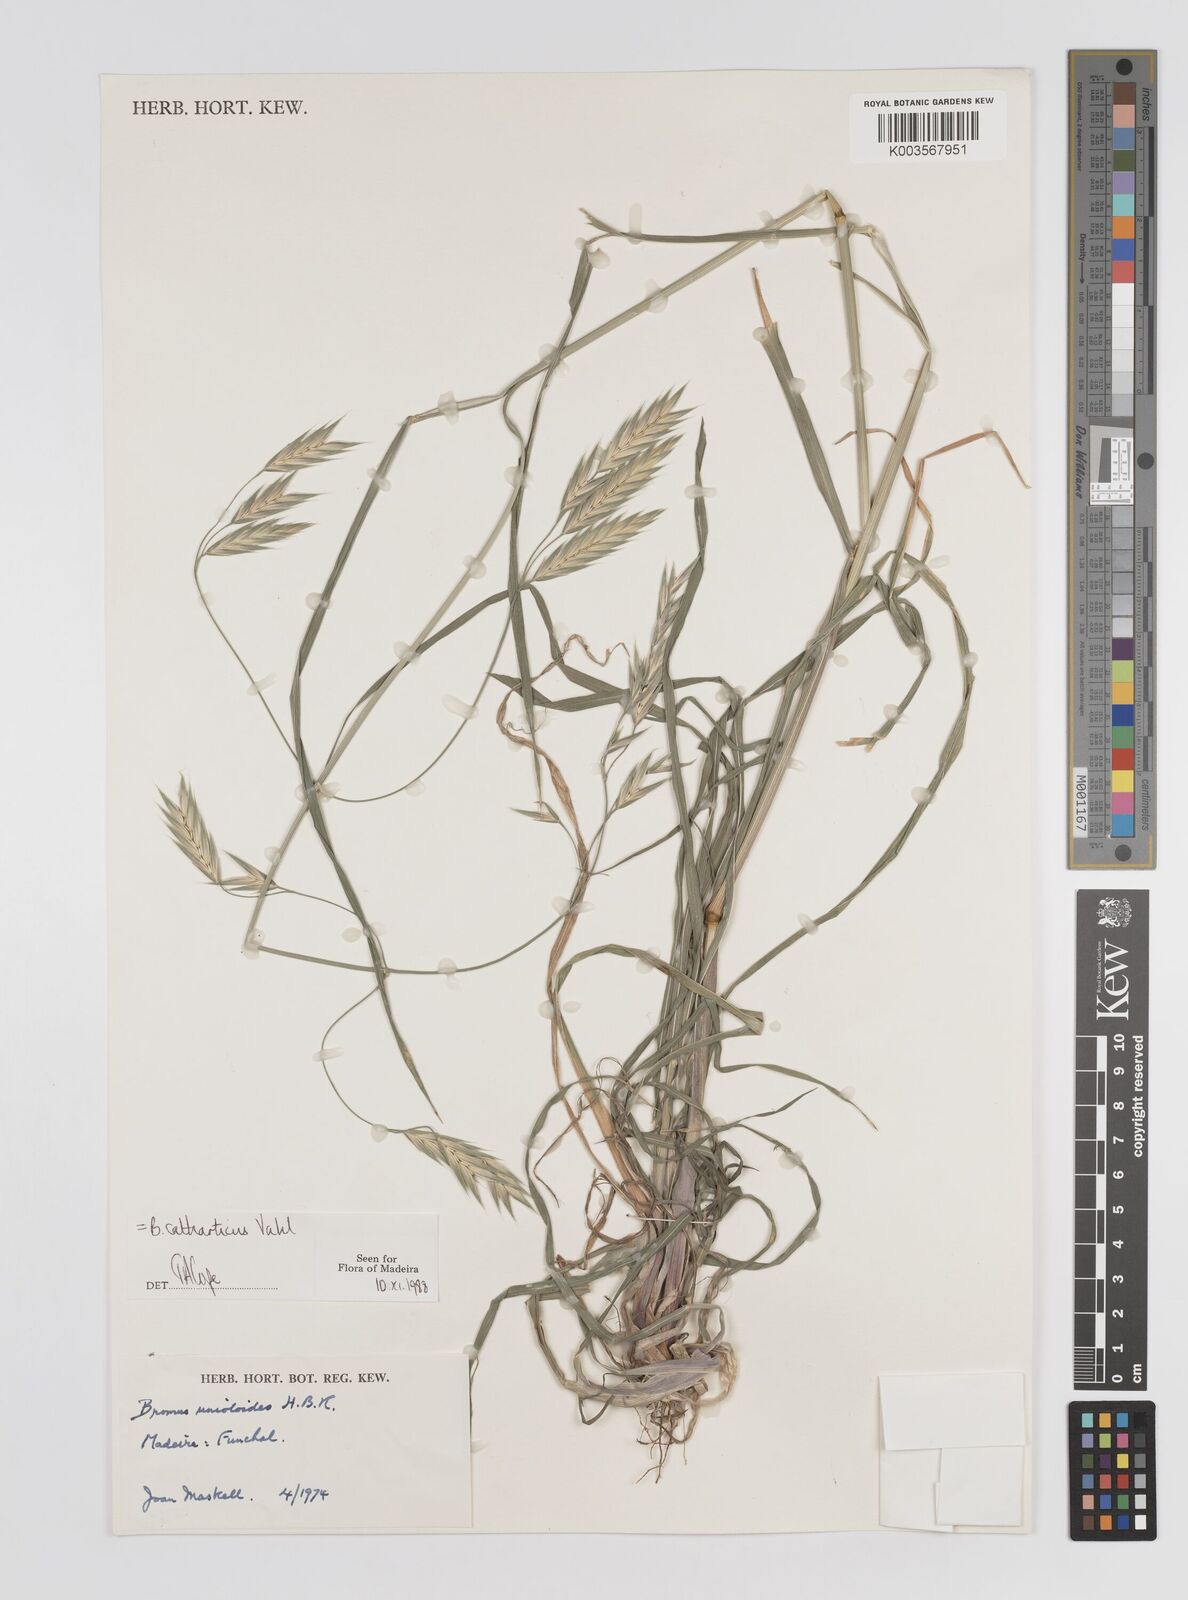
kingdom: Plantae
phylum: Tracheophyta
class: Liliopsida
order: Poales
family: Poaceae
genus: Bromus
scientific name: Bromus catharticus
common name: Rescuegrass
